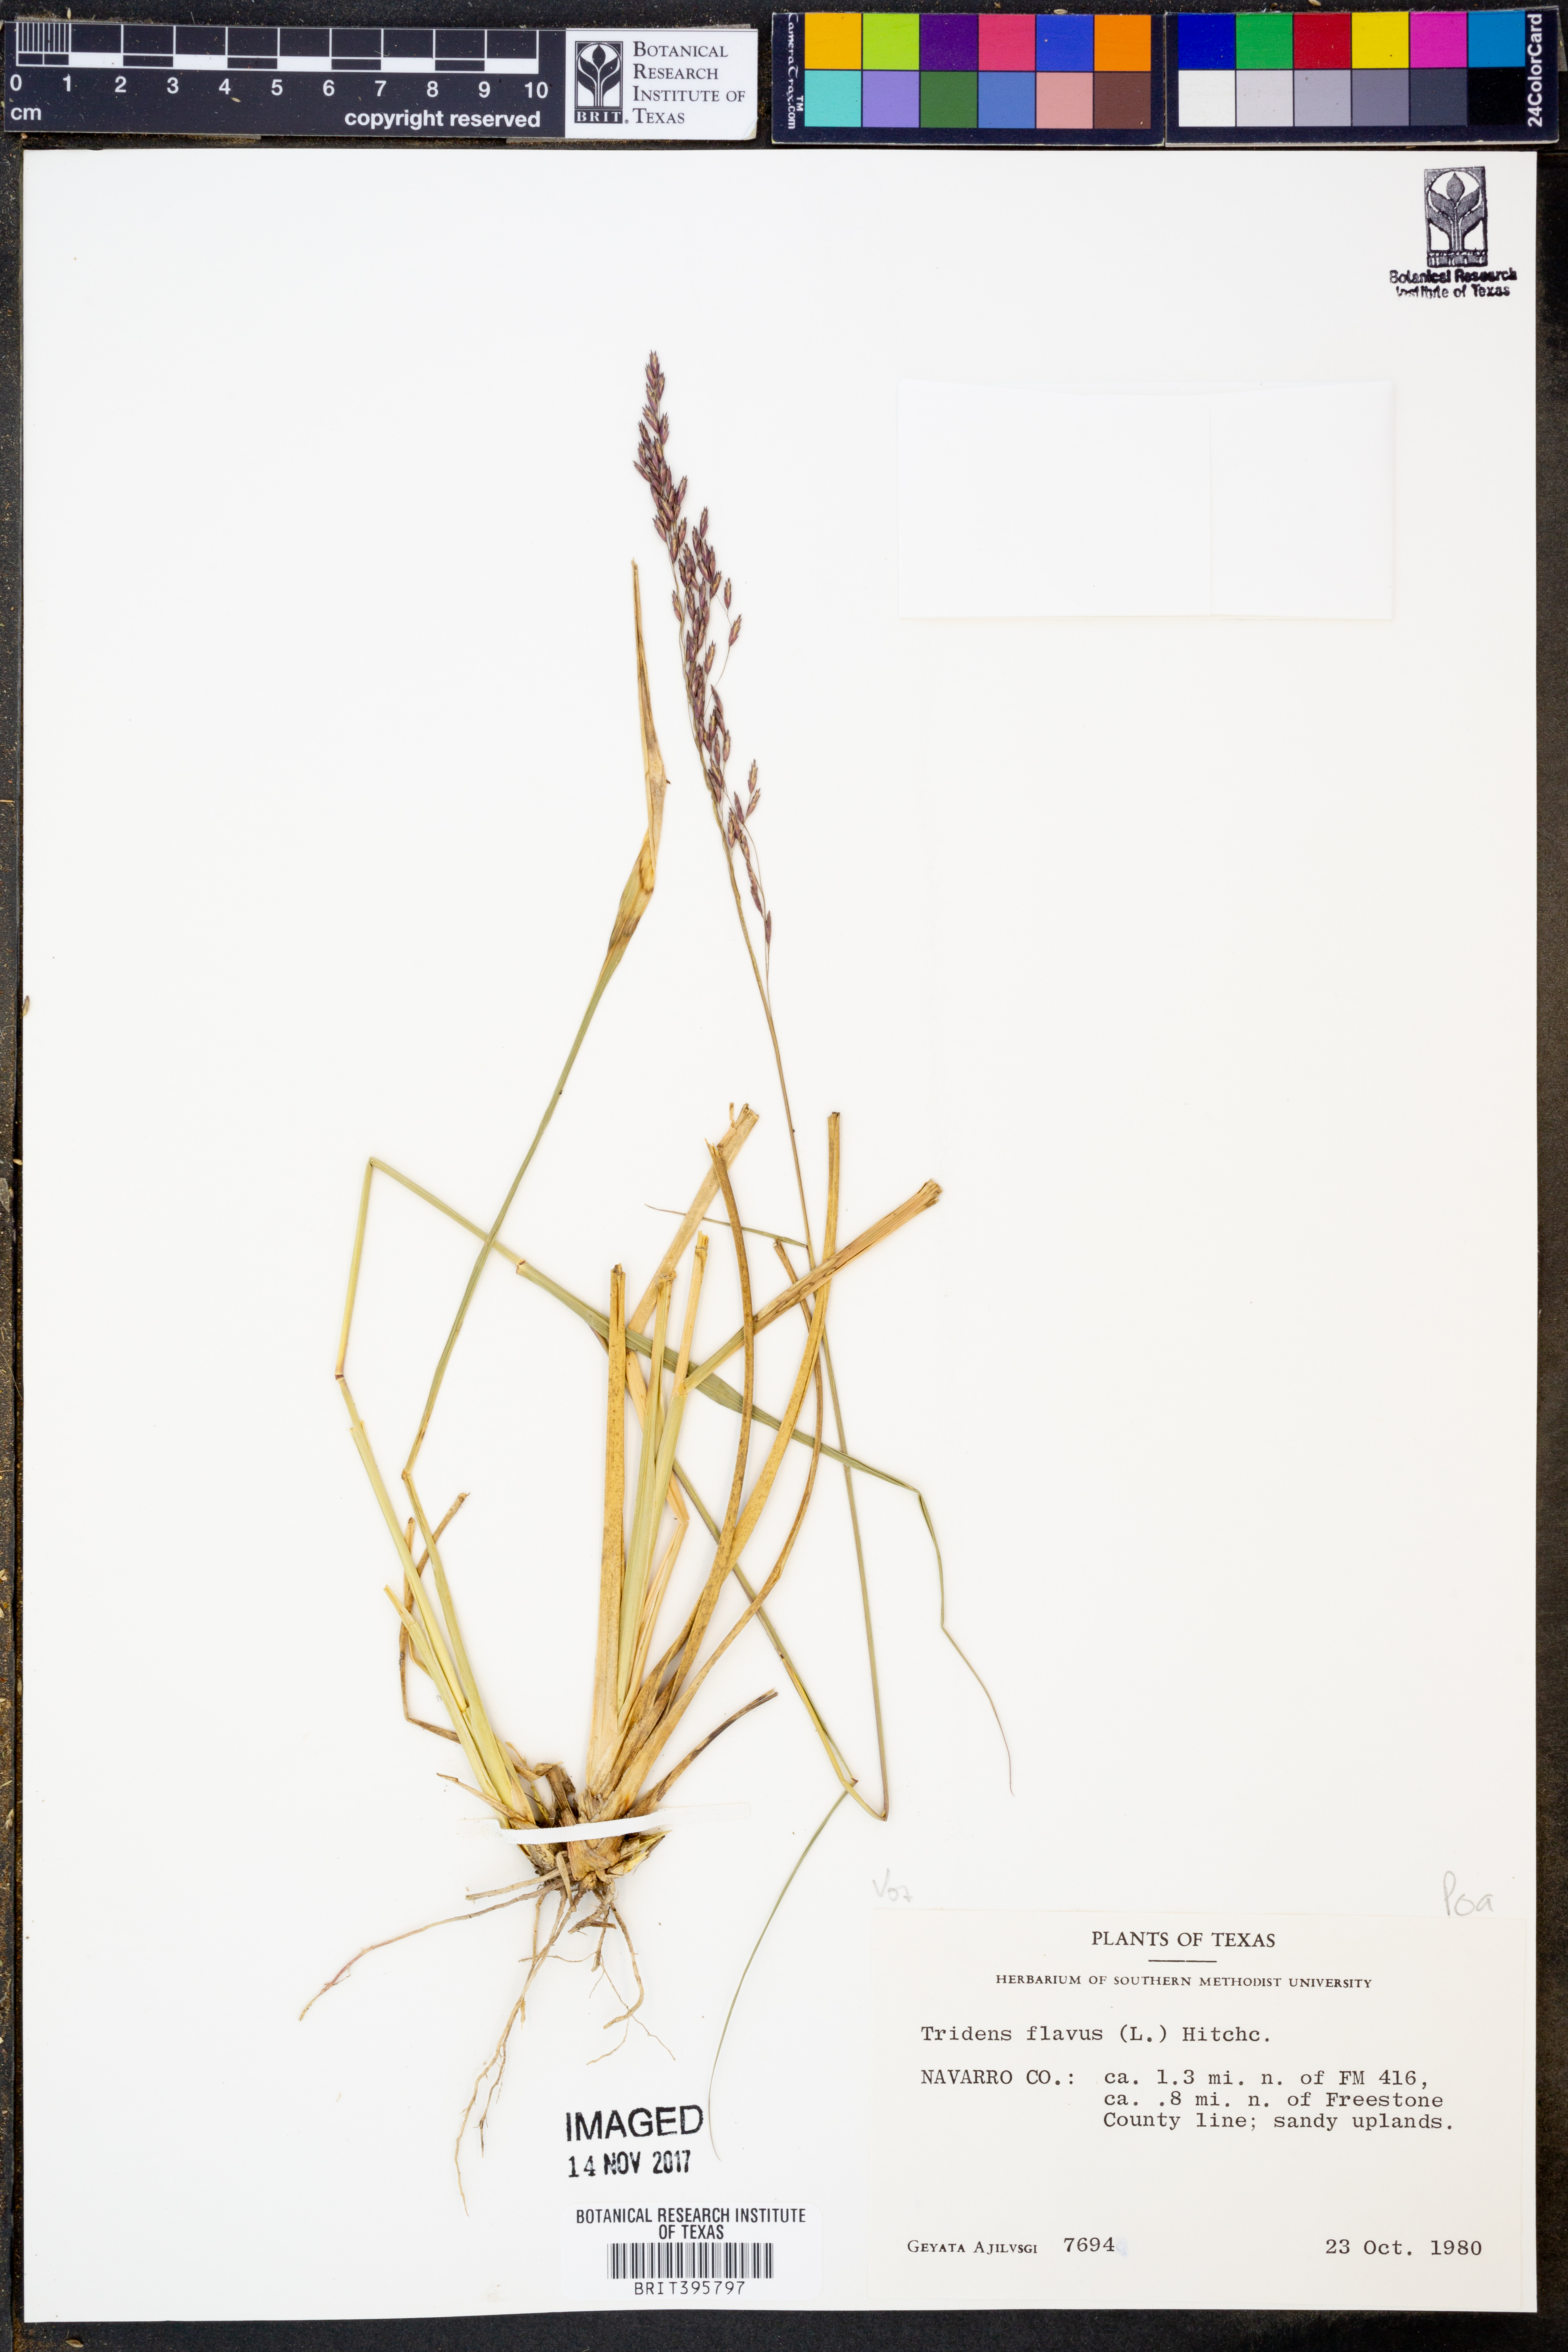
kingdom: Plantae
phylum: Tracheophyta
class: Liliopsida
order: Poales
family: Poaceae
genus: Tridens
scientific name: Tridens flavus
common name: Purpletop
